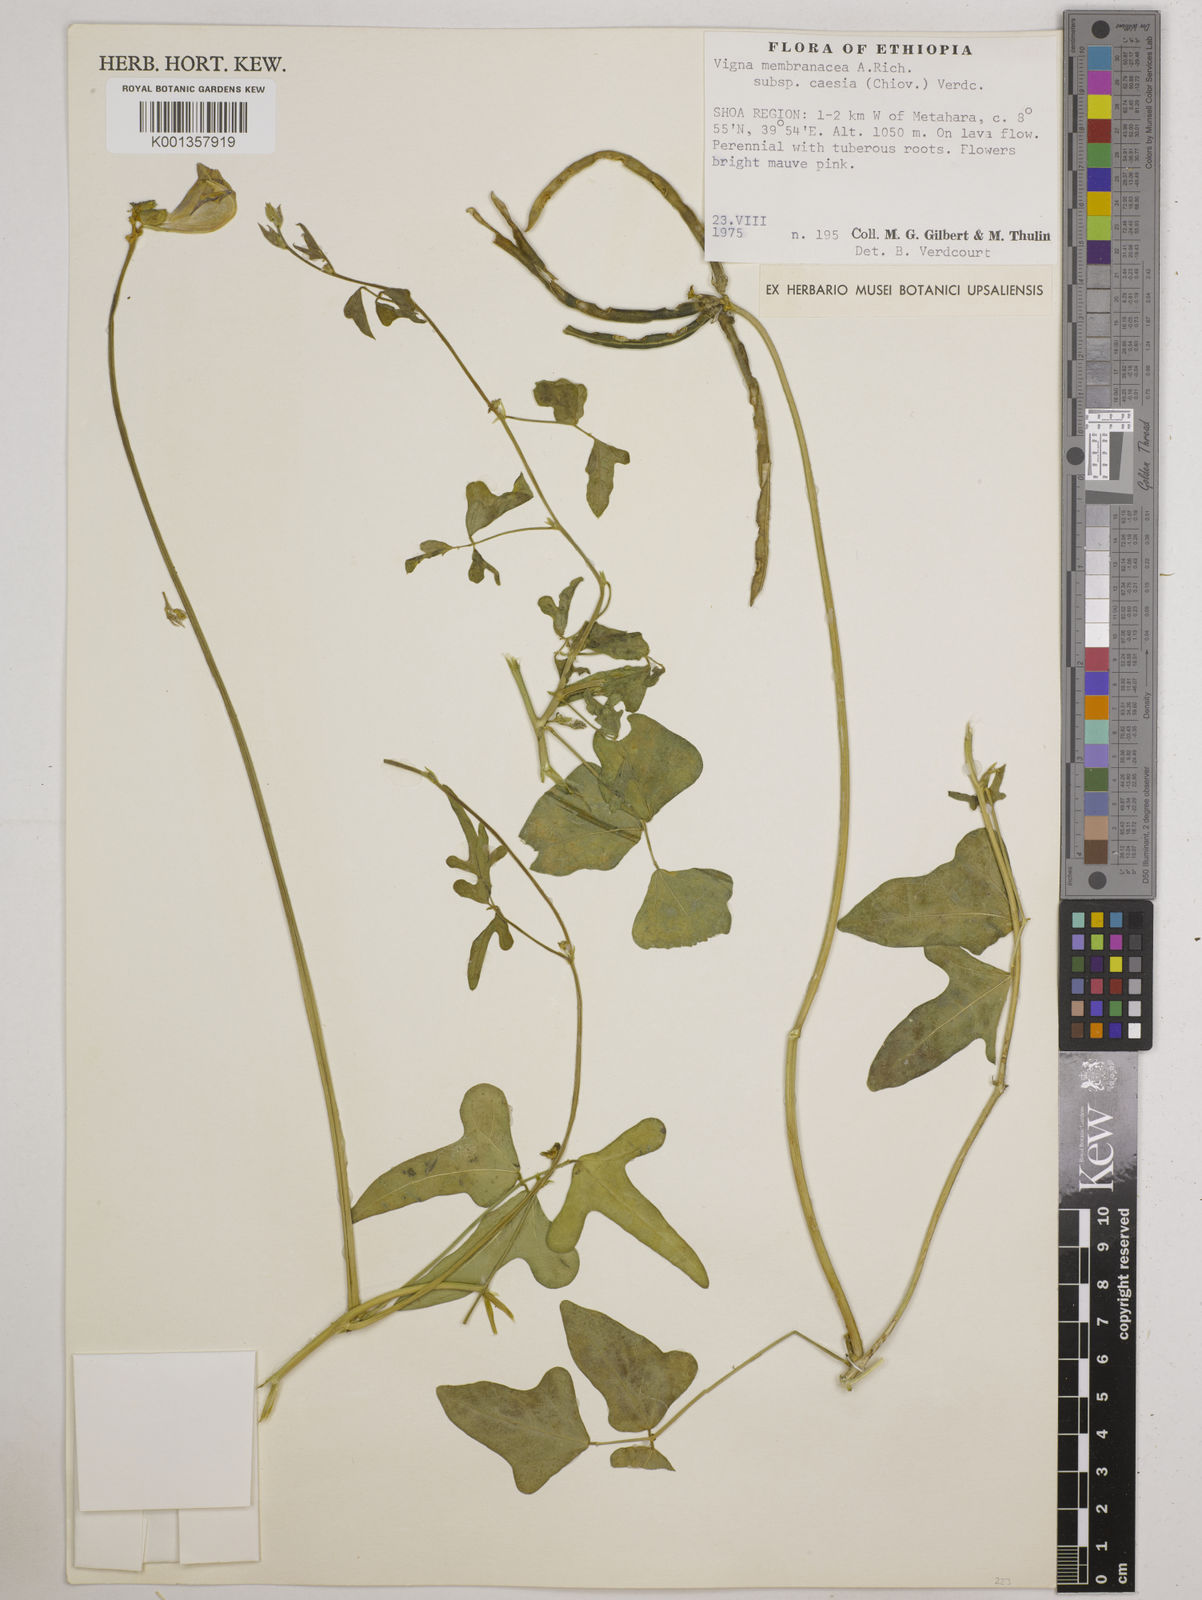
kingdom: Plantae
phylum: Tracheophyta
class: Magnoliopsida
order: Fabales
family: Fabaceae
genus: Vigna
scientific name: Vigna
